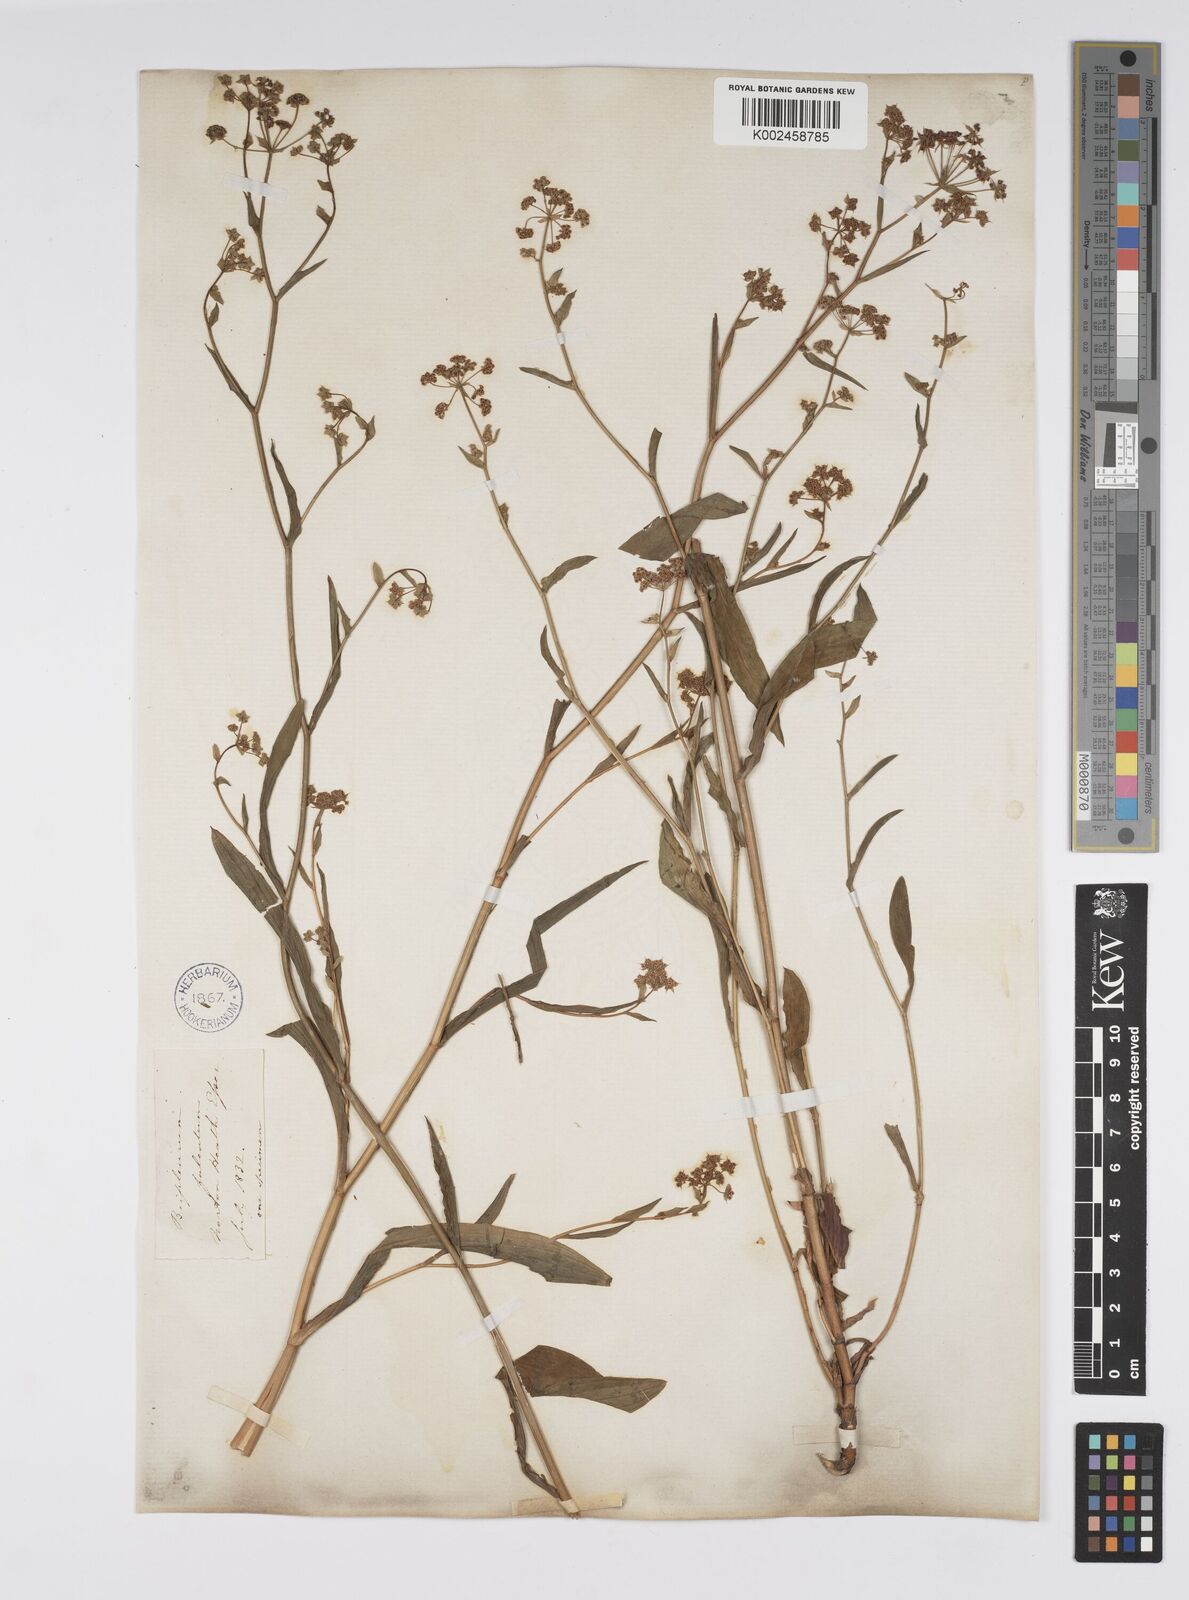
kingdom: Plantae
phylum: Tracheophyta
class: Magnoliopsida
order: Apiales
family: Apiaceae
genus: Bupleurum
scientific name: Bupleurum falcatum
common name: Sickle-leaved hare's-ear
